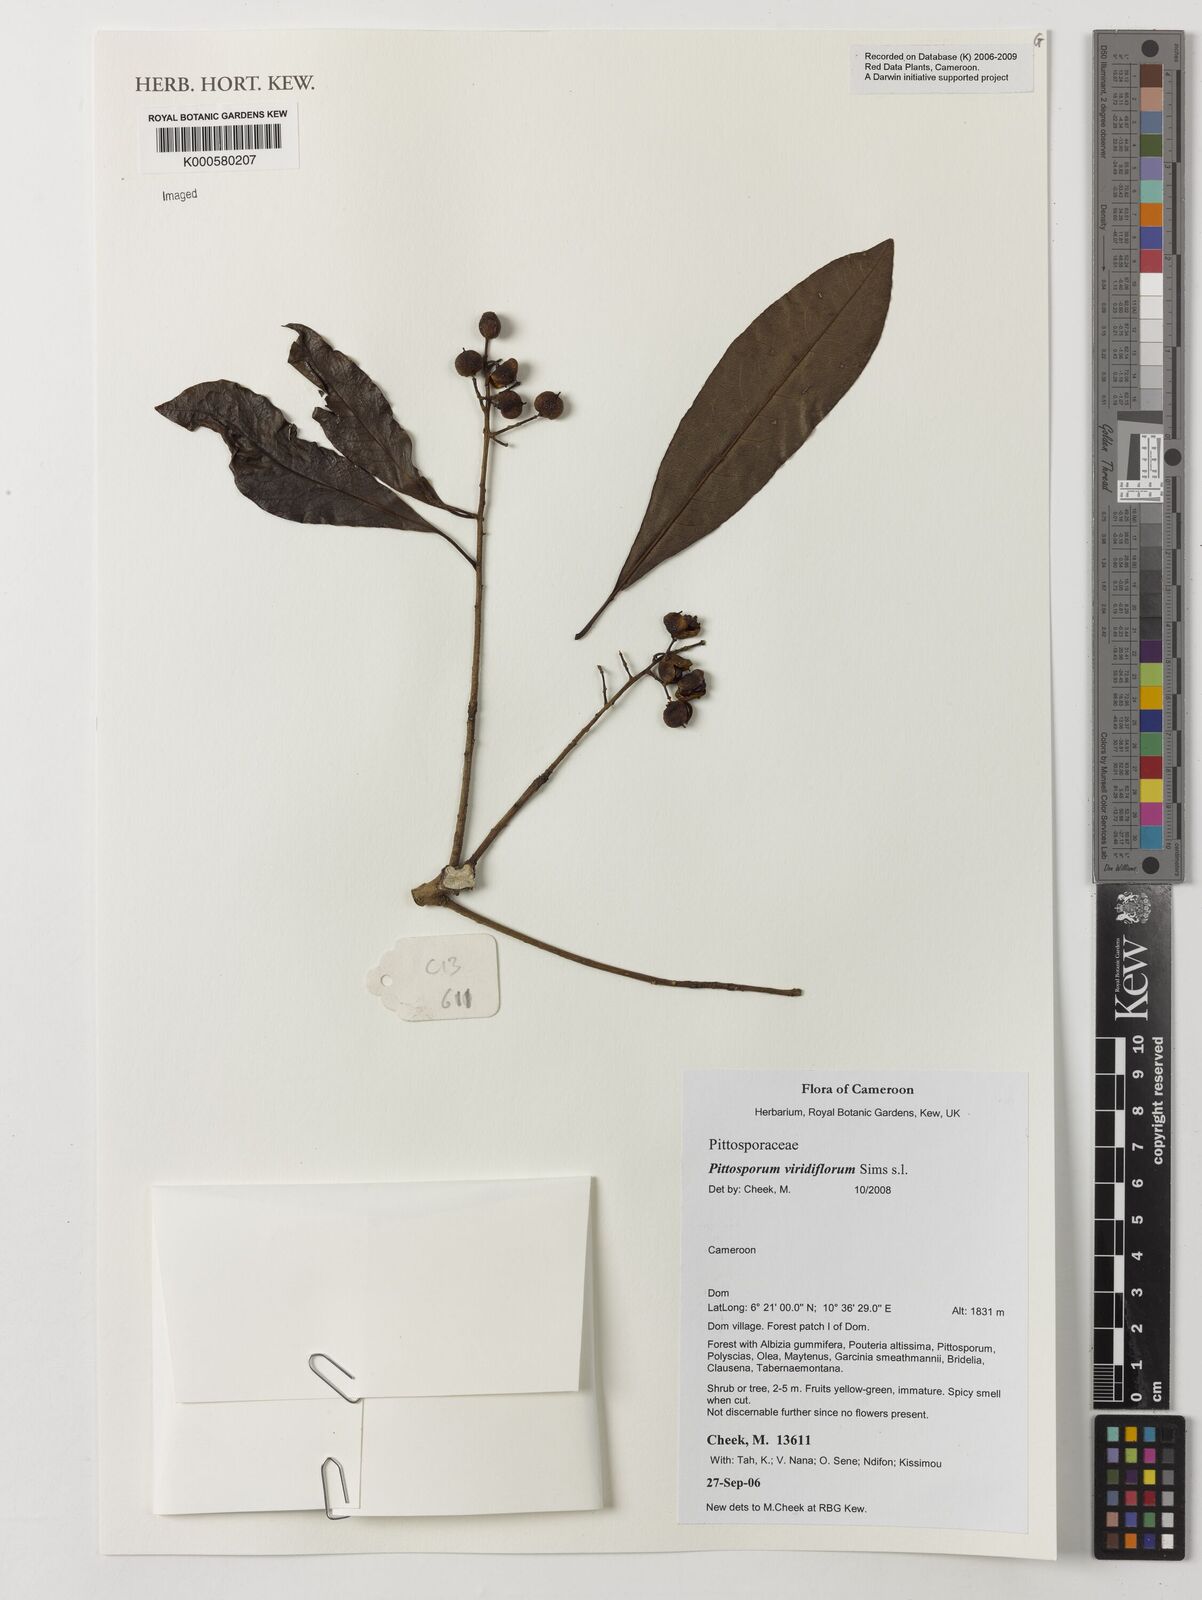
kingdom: Plantae
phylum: Tracheophyta
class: Magnoliopsida
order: Apiales
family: Pittosporaceae
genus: Pittosporum
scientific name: Pittosporum viridiflorum
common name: Cape cheesewood
